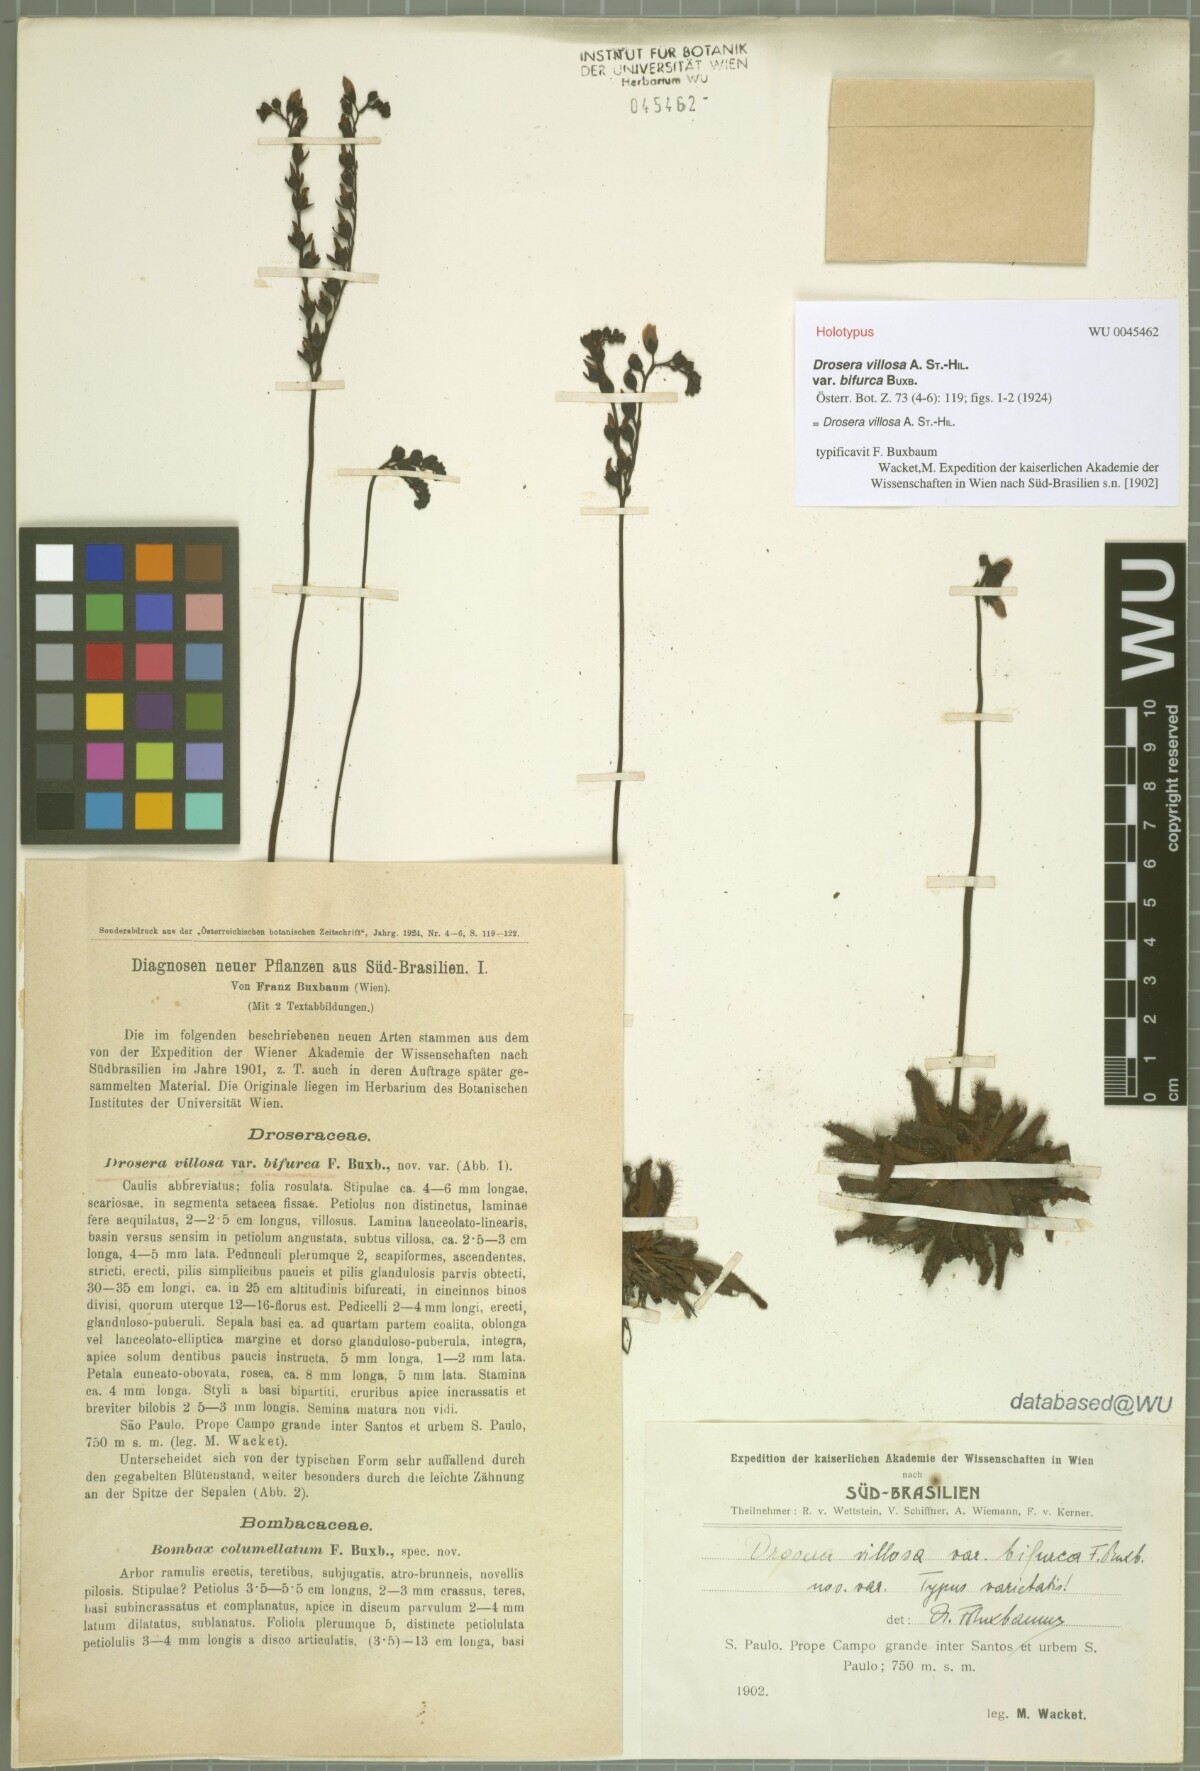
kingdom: Plantae
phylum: Tracheophyta
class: Magnoliopsida
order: Caryophyllales
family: Droseraceae
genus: Drosera
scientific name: Drosera latifolia
